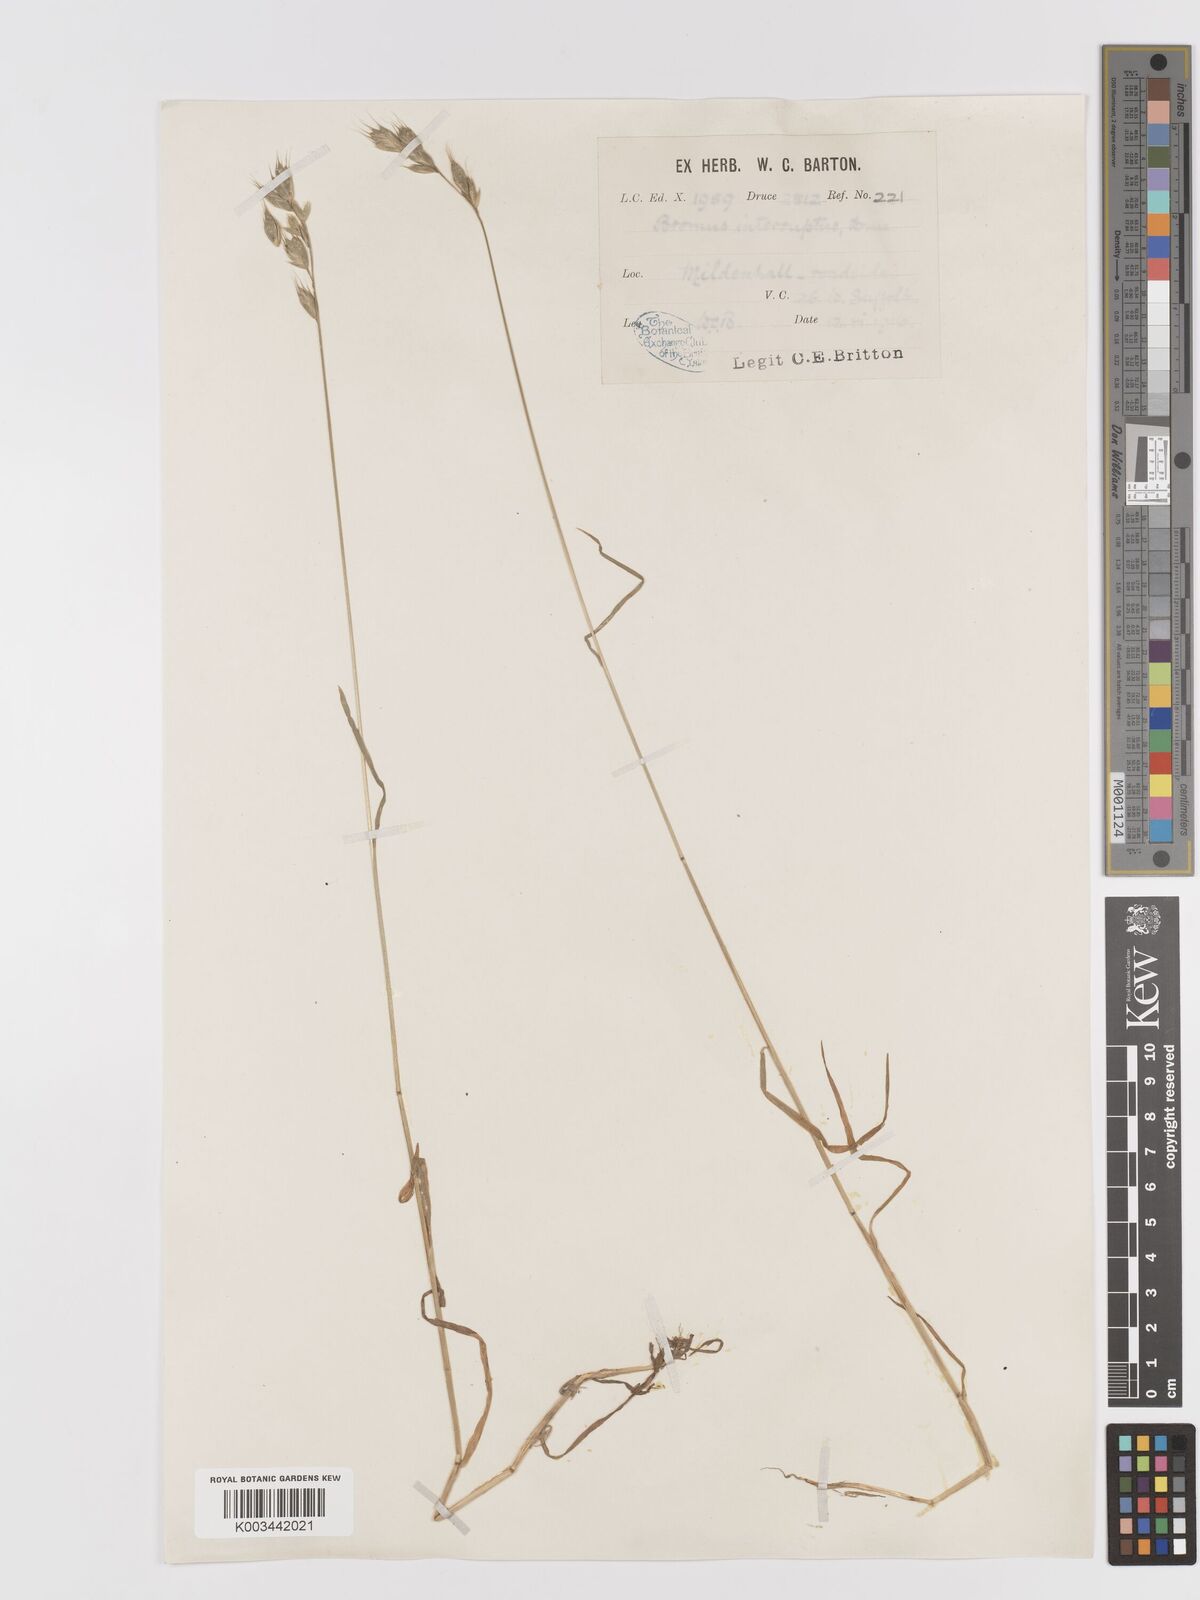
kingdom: Plantae
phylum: Tracheophyta
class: Liliopsida
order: Poales
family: Poaceae
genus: Bromus
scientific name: Bromus interruptus
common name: Interrupted brome
